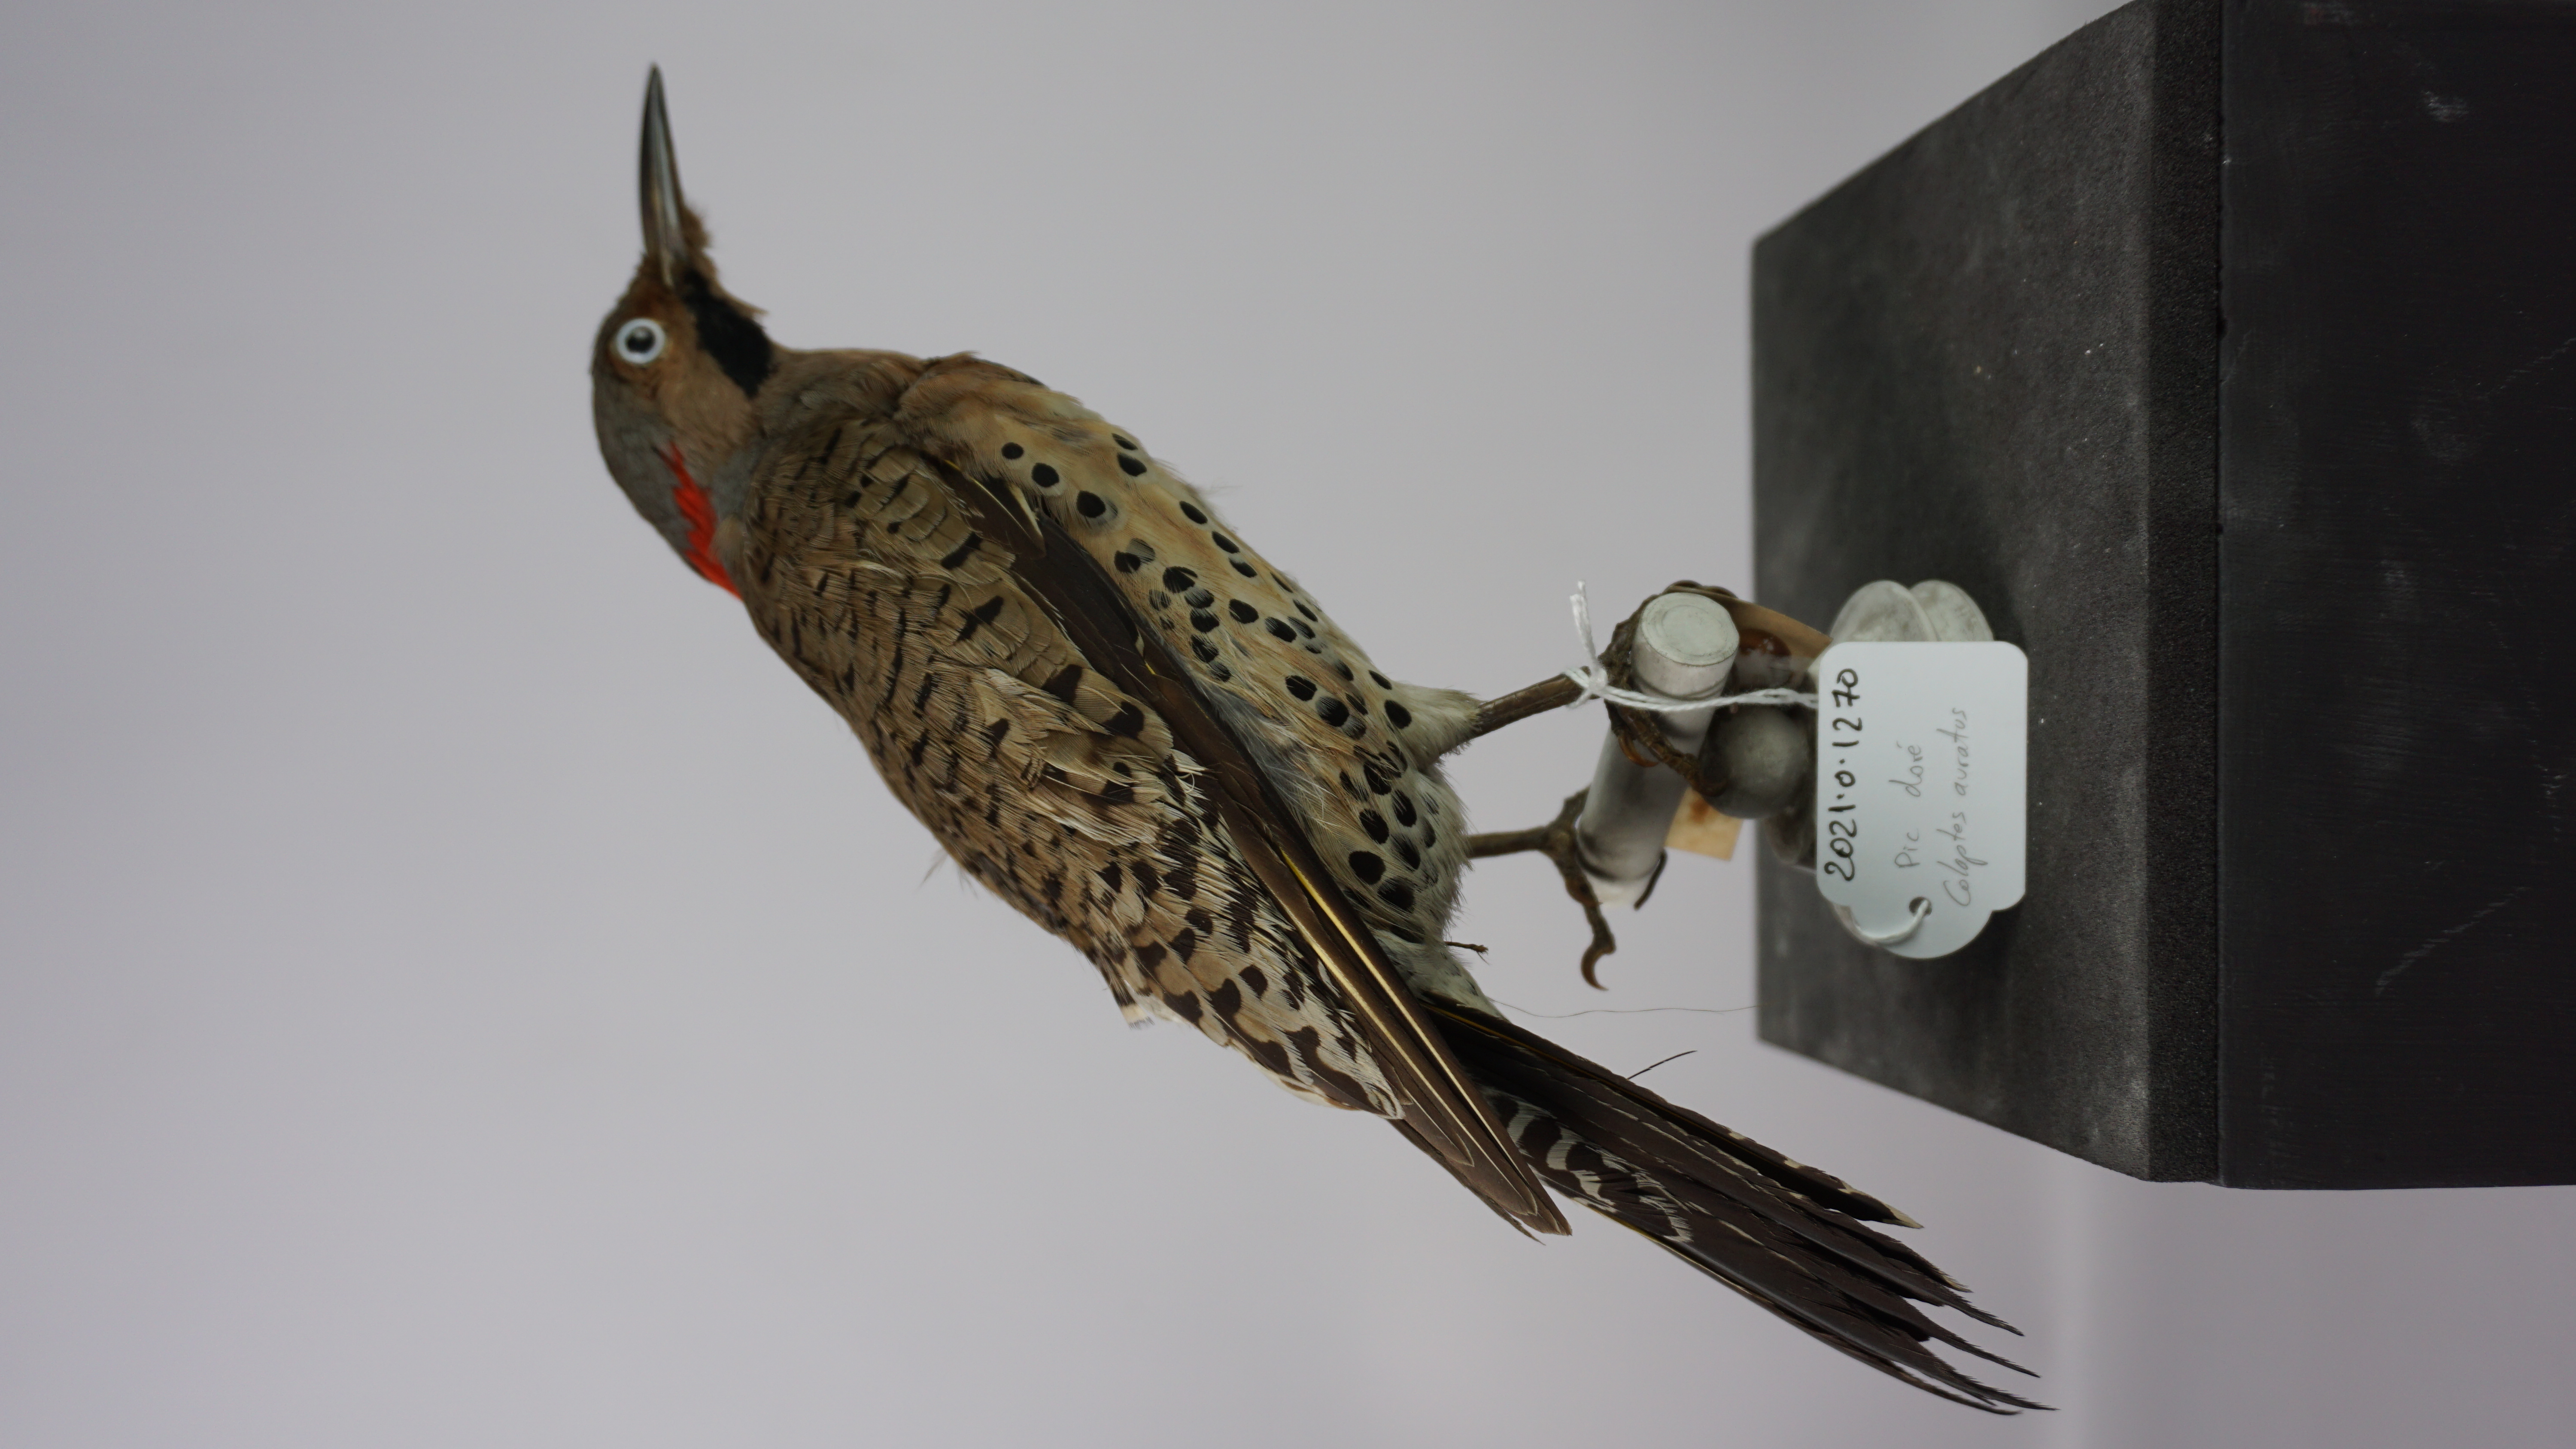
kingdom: Animalia
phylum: Chordata
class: Aves
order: Piciformes
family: Picidae
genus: Colaptes
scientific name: Colaptes auratus
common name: Northern flicker
